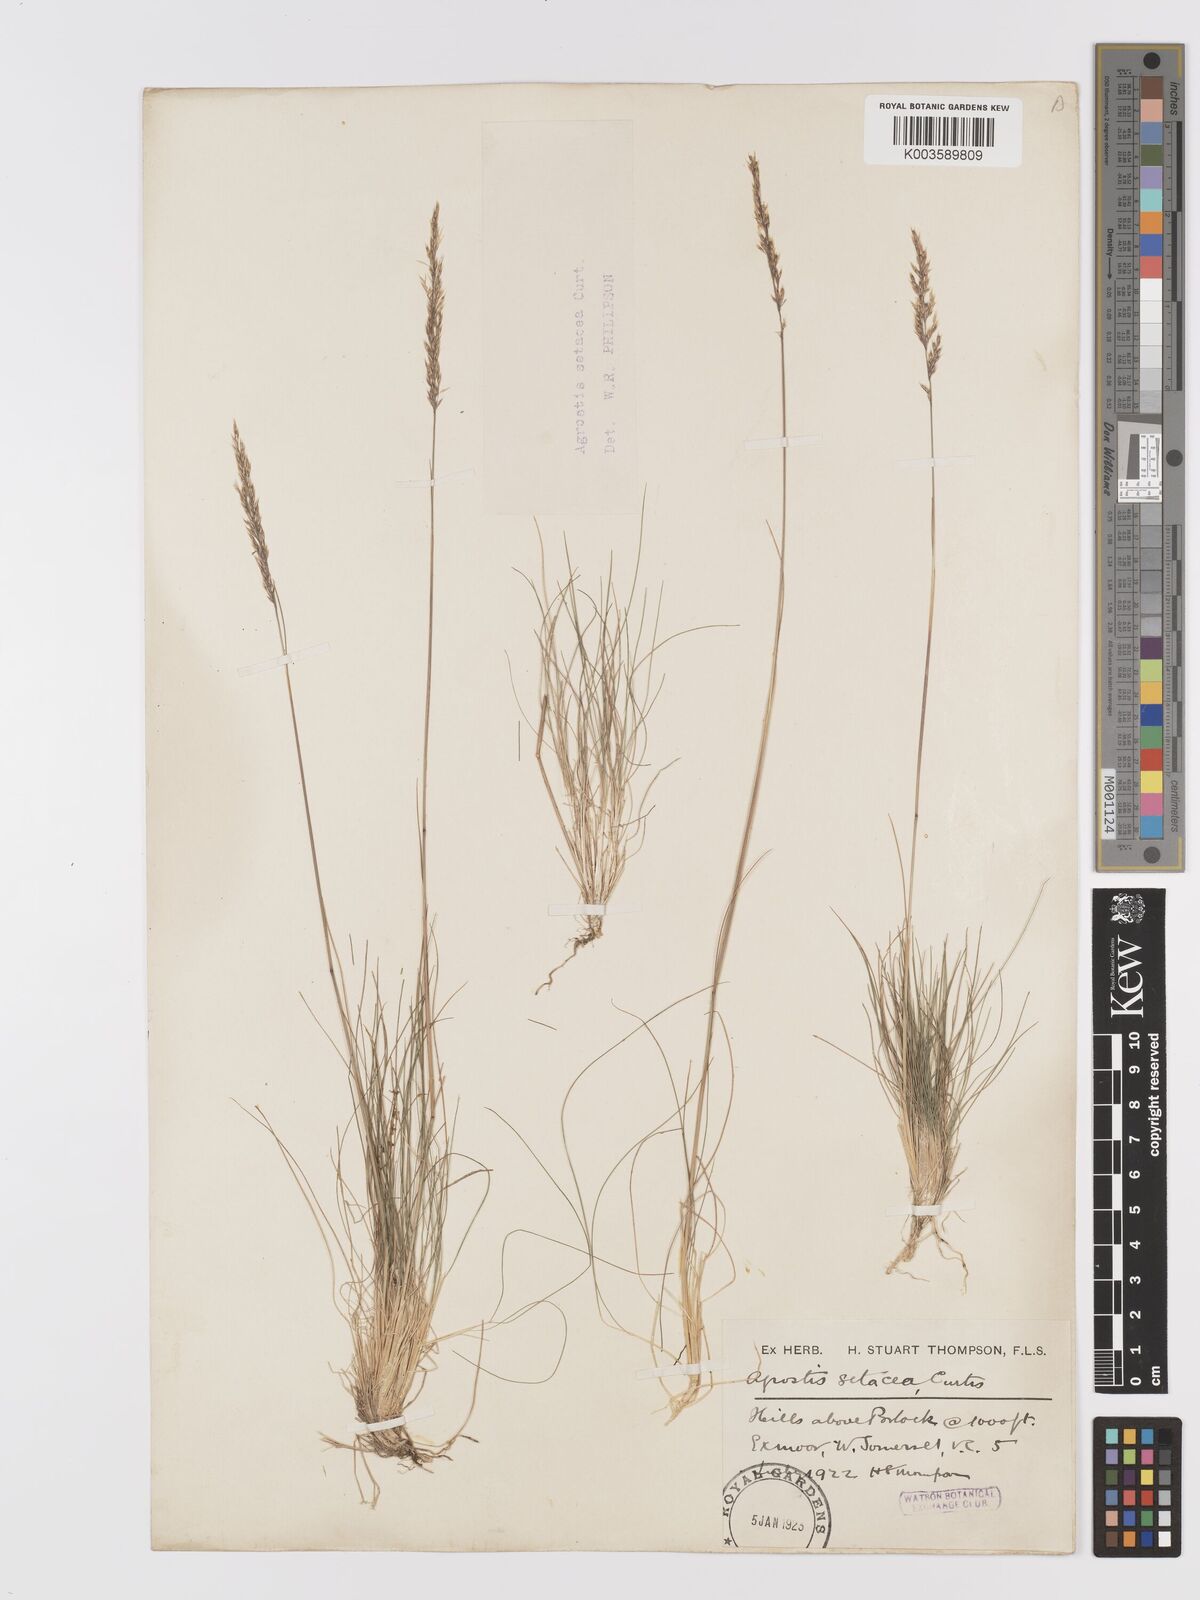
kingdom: Plantae
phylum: Tracheophyta
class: Liliopsida
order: Poales
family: Poaceae
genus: Alpagrostis
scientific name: Alpagrostis setacea
